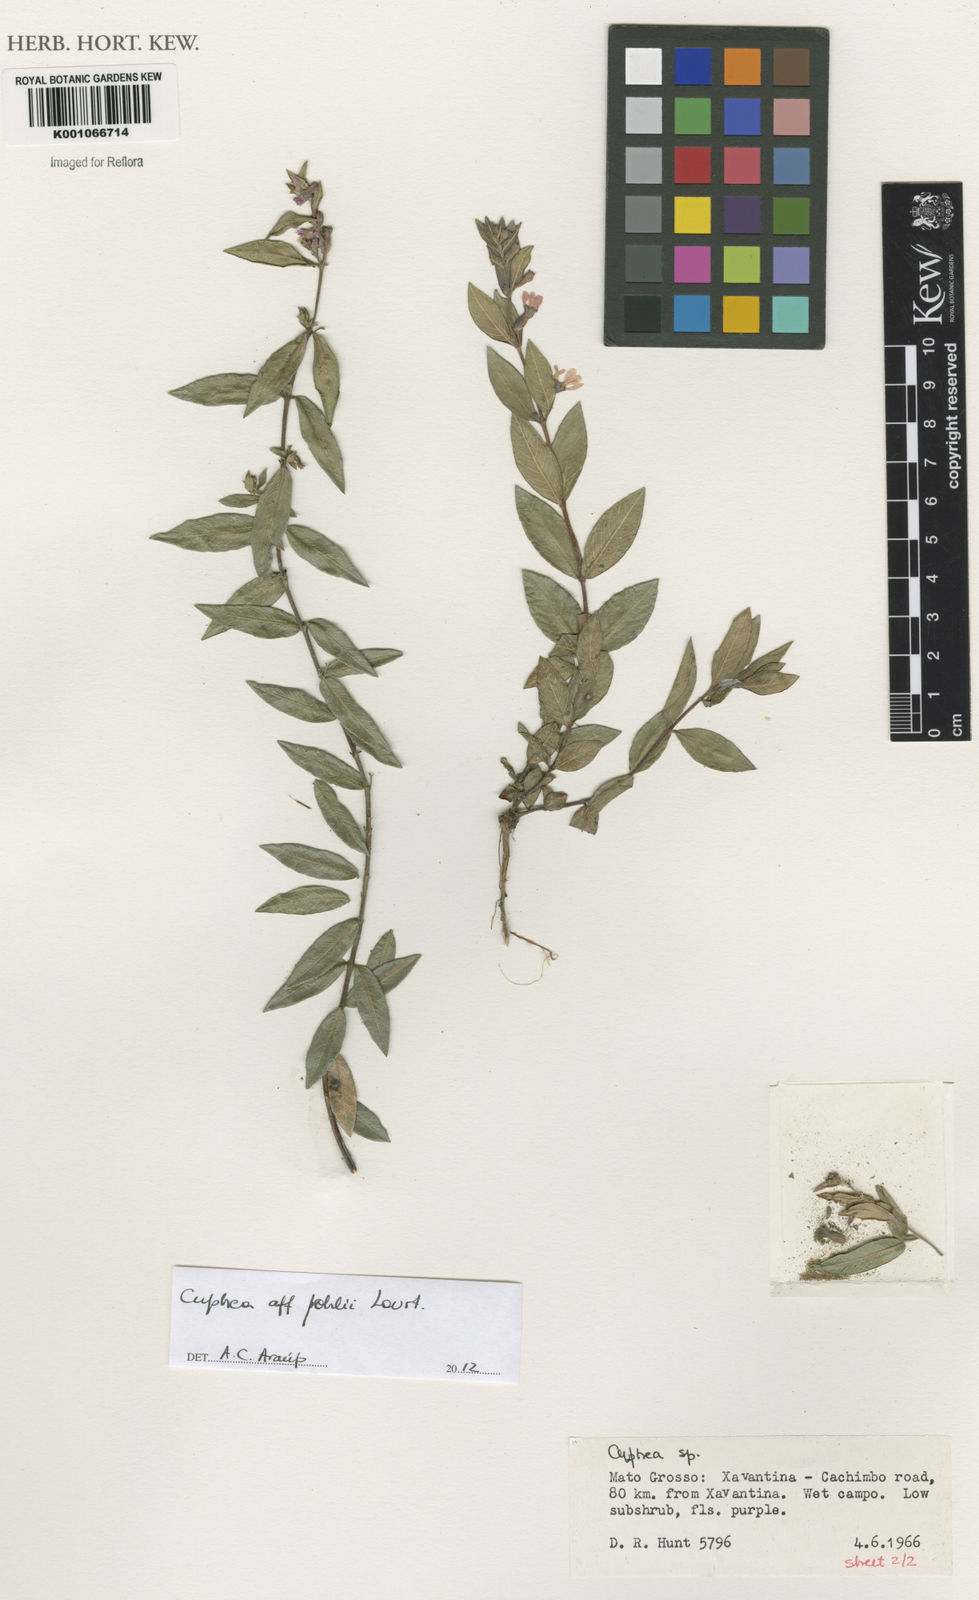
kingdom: Plantae
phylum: Tracheophyta
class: Magnoliopsida
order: Myrtales
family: Lythraceae
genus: Cuphea
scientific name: Cuphea pohlii
